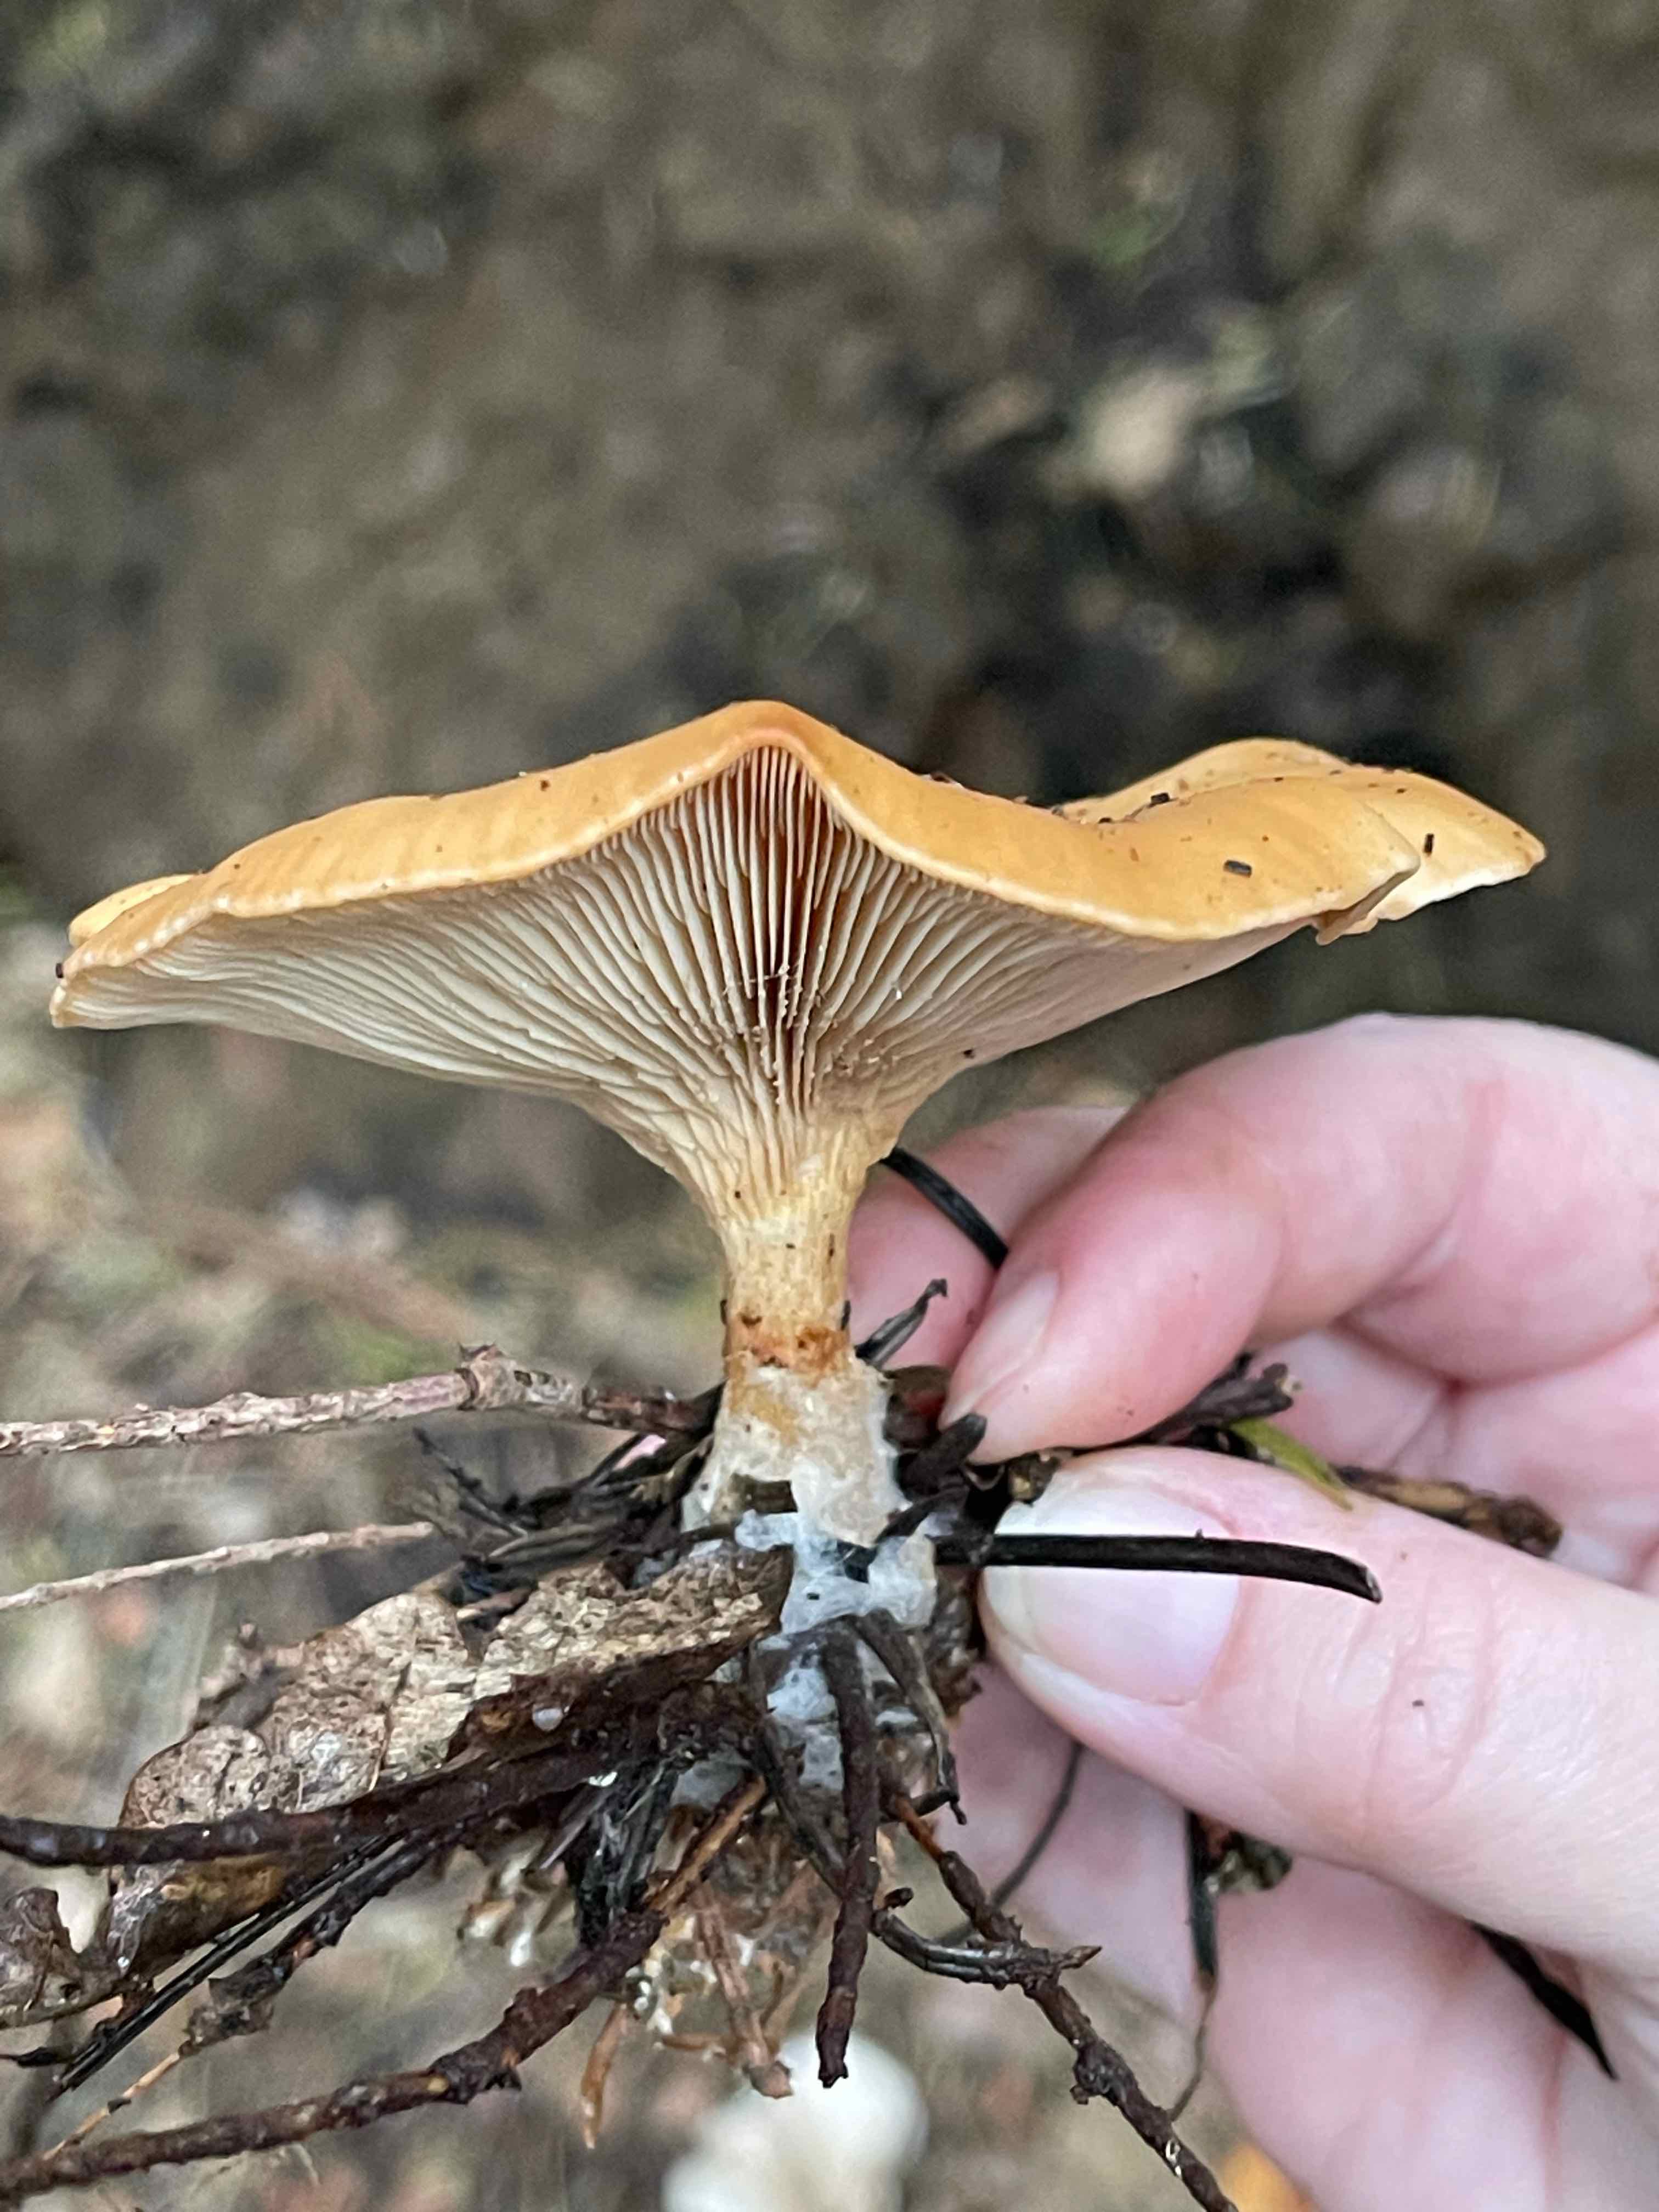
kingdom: Fungi
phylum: Basidiomycota
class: Agaricomycetes
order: Agaricales
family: Tricholomataceae
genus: Paralepista
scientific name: Paralepista flaccida
